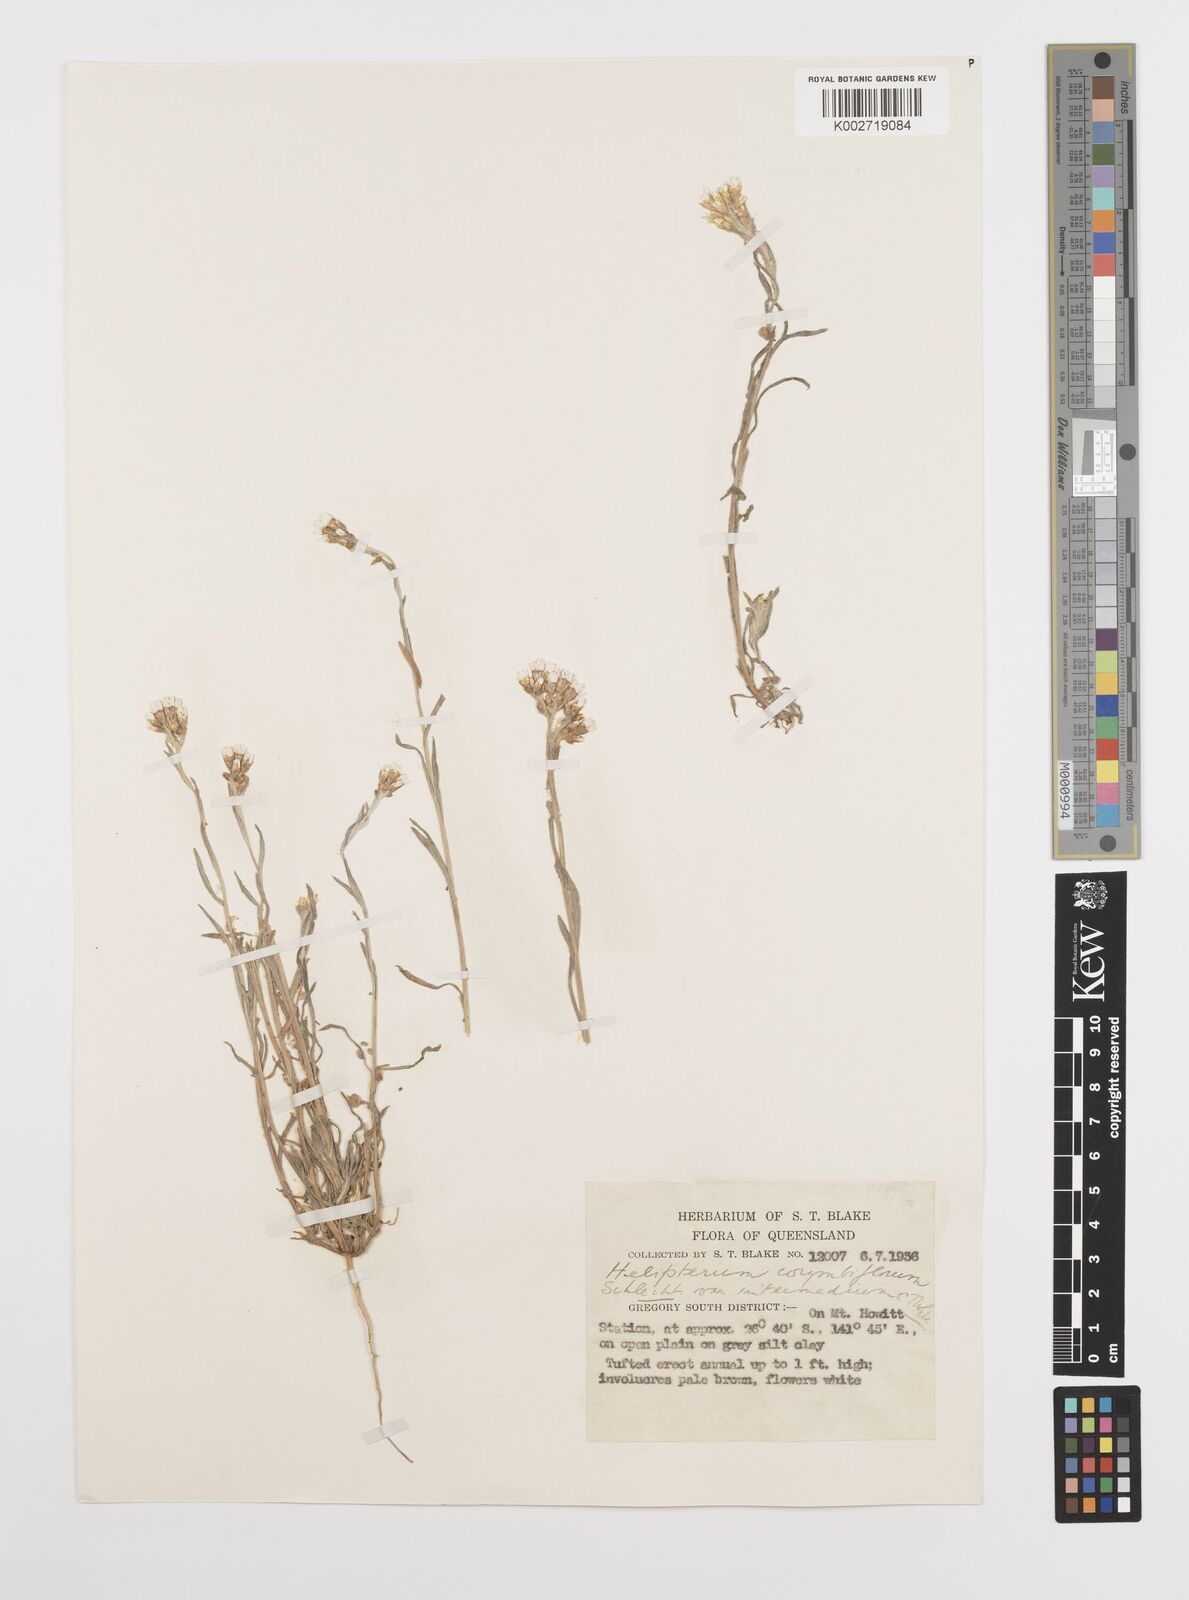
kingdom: Plantae
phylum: Tracheophyta
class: Magnoliopsida
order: Asterales
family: Asteraceae
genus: Rhodanthe
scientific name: Rhodanthe corymbiflora
